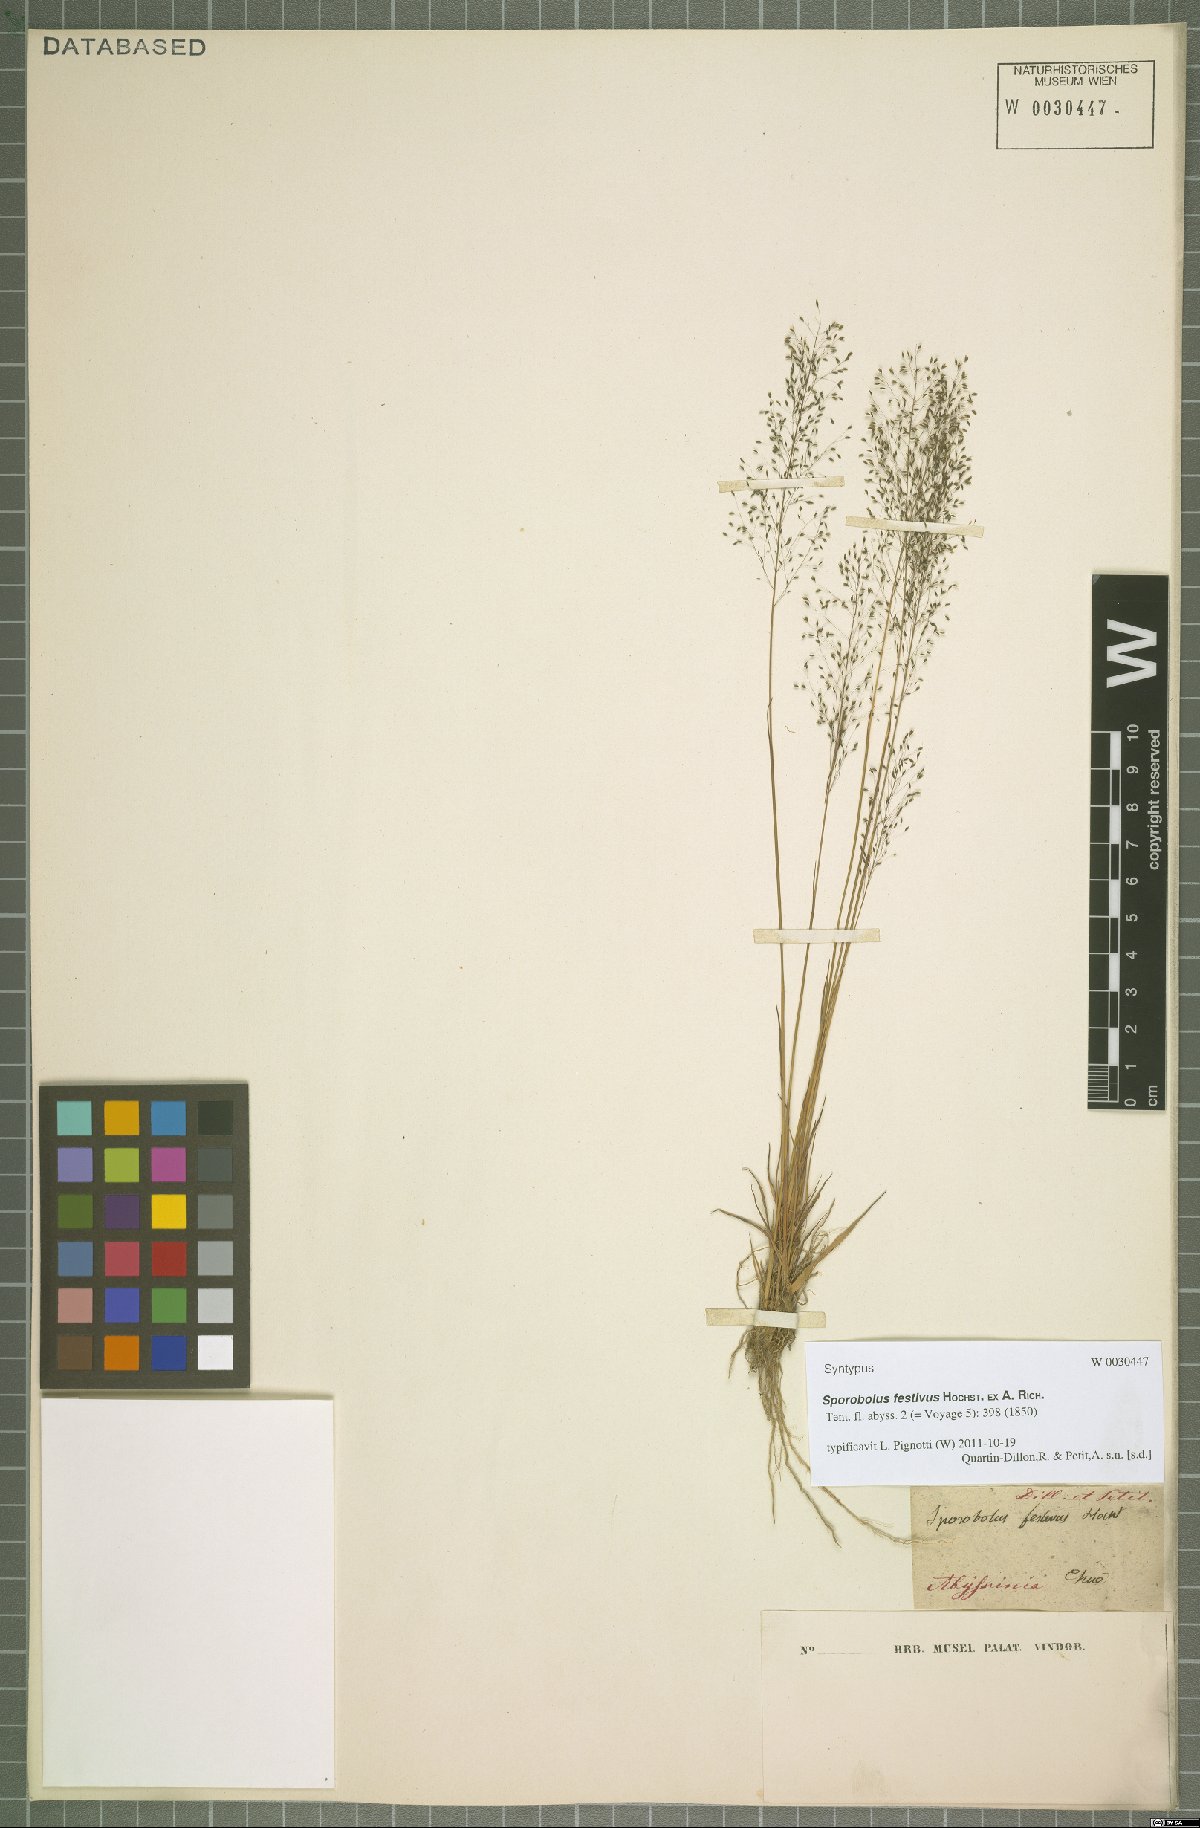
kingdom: Plantae
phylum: Tracheophyta
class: Liliopsida
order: Poales
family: Poaceae
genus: Sporobolus
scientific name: Sporobolus festivus
